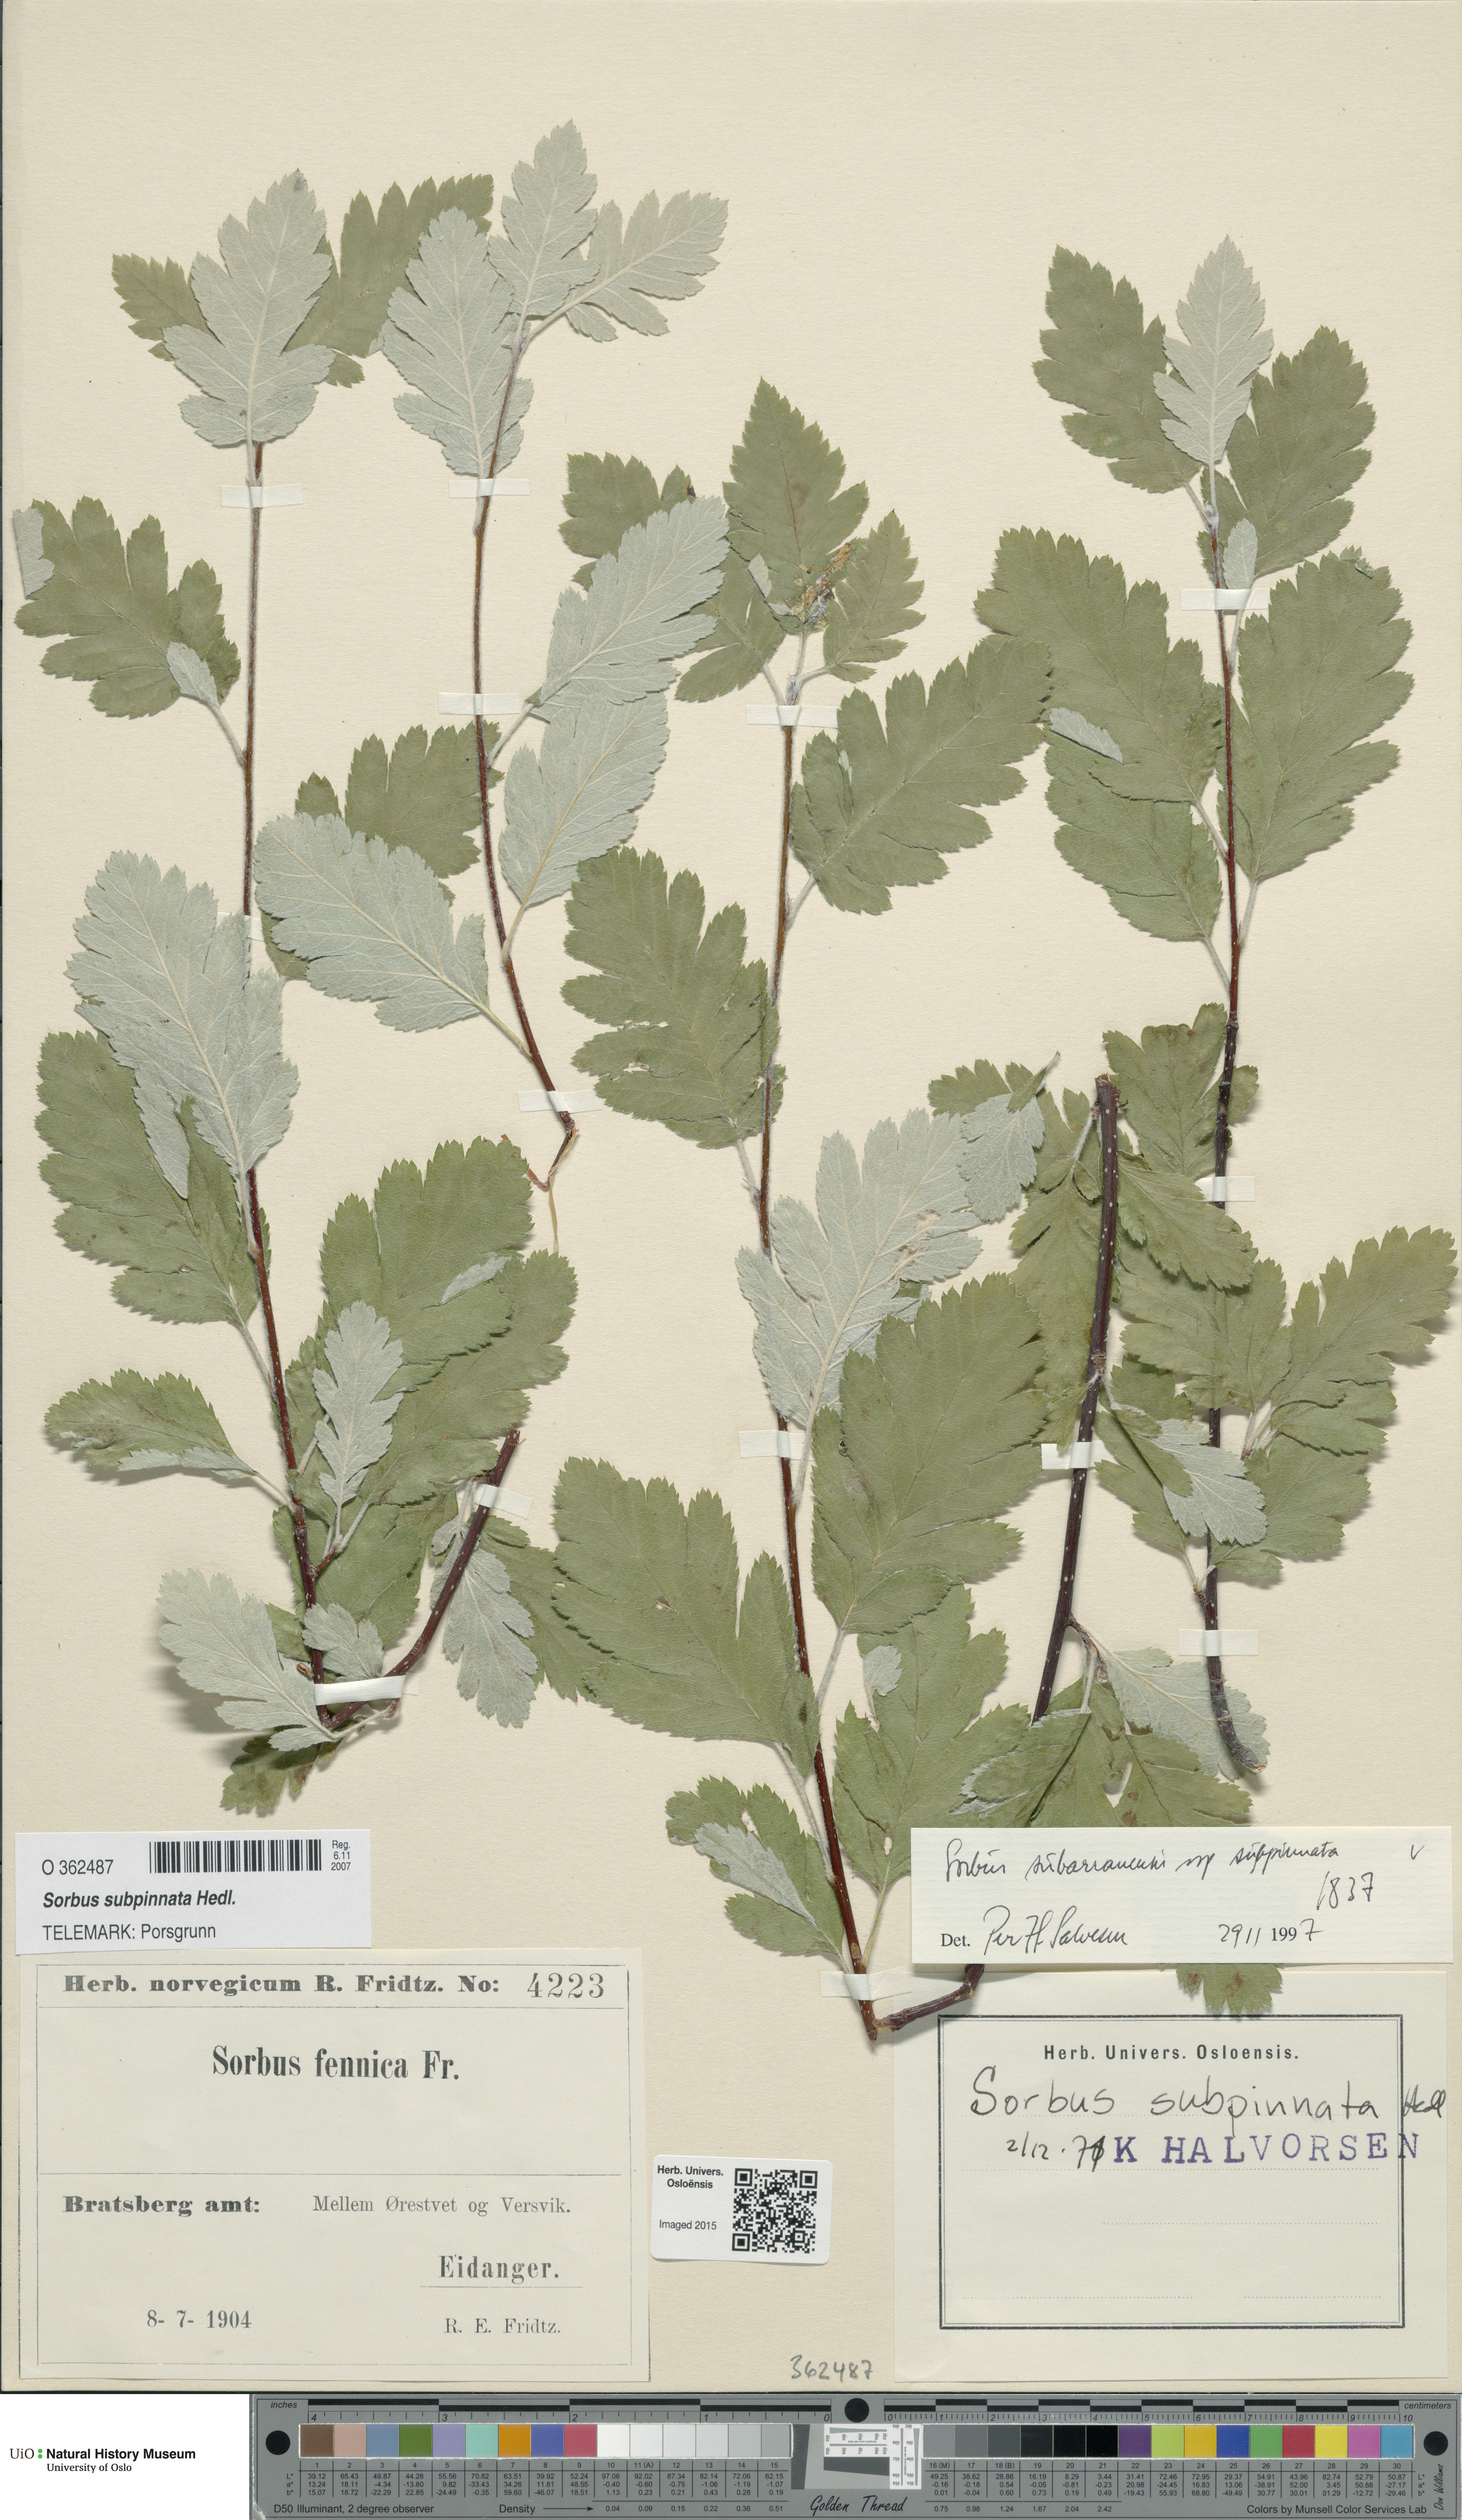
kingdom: Plantae
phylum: Tracheophyta
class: Magnoliopsida
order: Rosales
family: Rosaceae
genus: Hedlundia
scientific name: Hedlundia subpinnata
